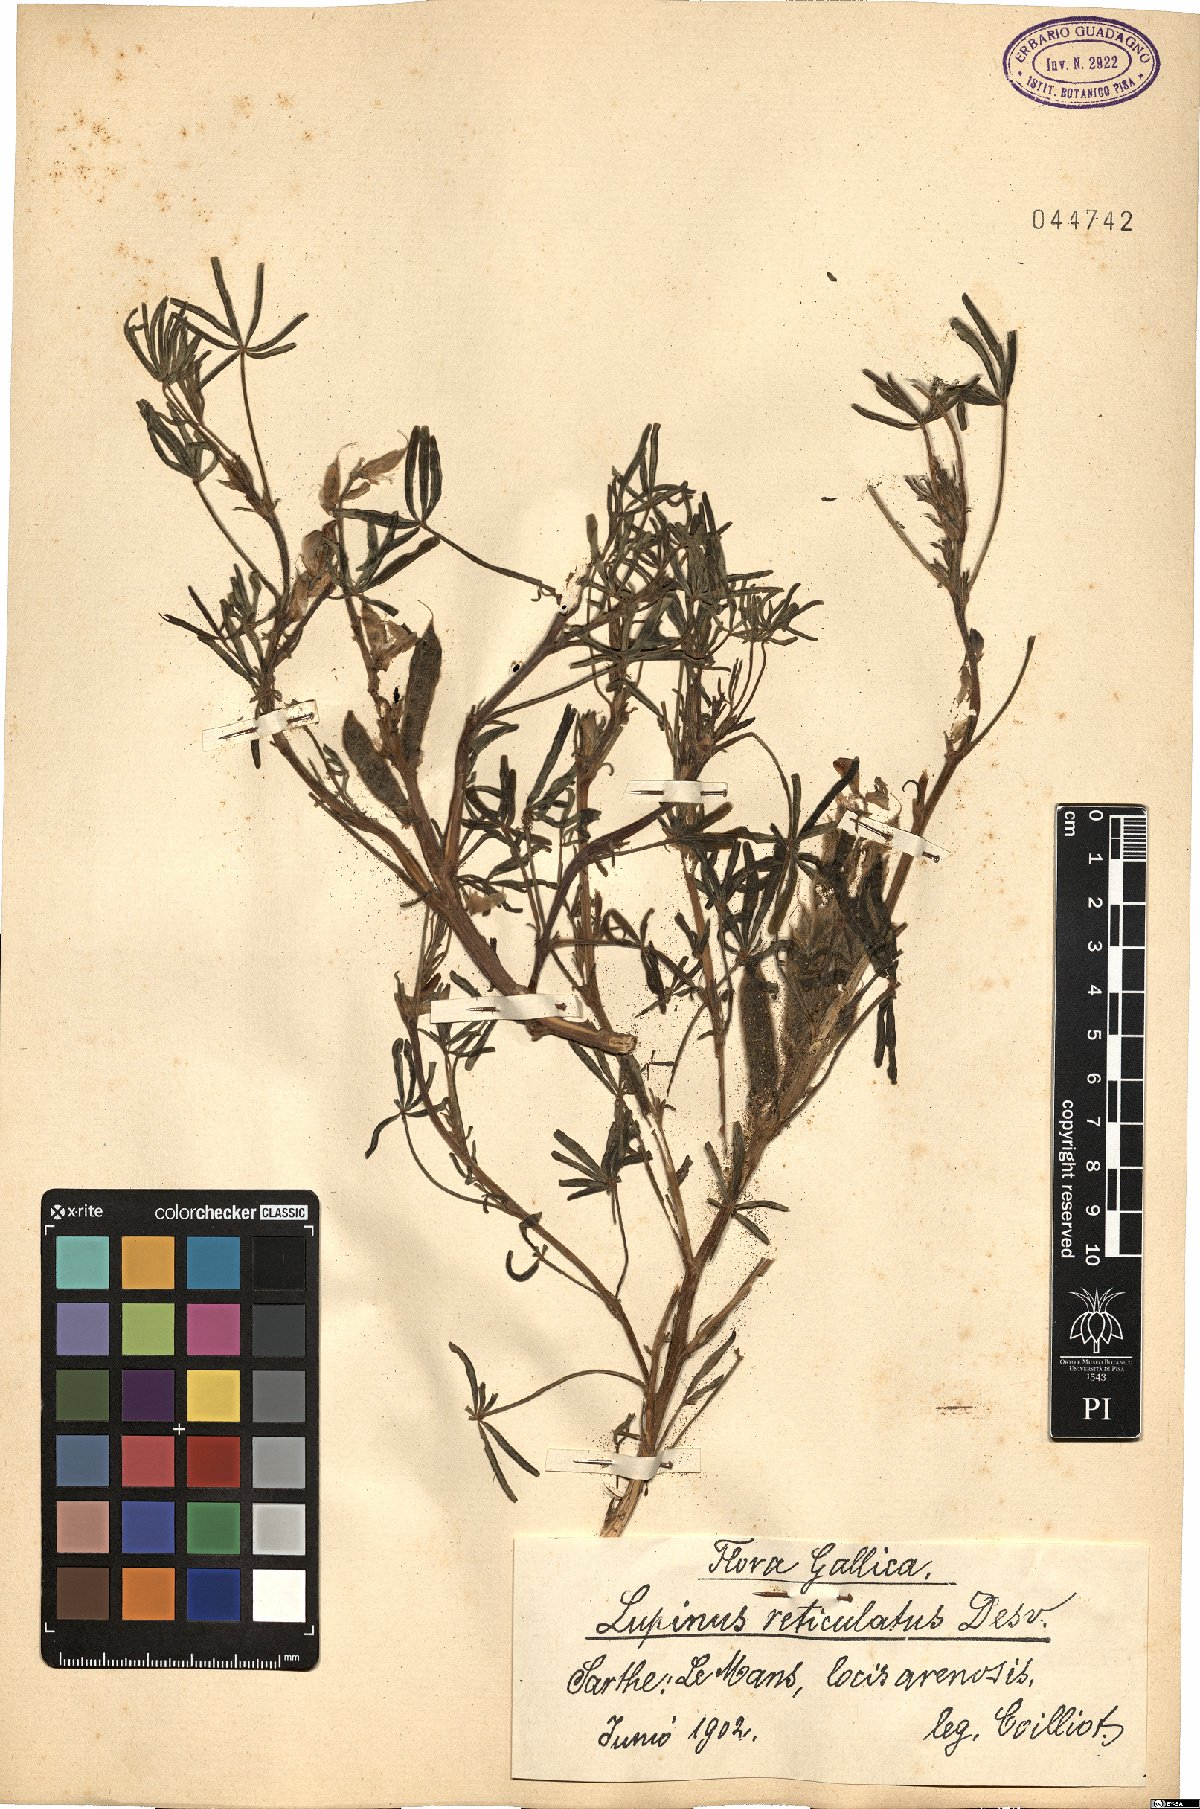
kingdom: Plantae
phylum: Tracheophyta
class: Magnoliopsida
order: Fabales
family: Fabaceae
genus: Lupinus
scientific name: Lupinus angustifolius
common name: Narrow-leaved lupin
